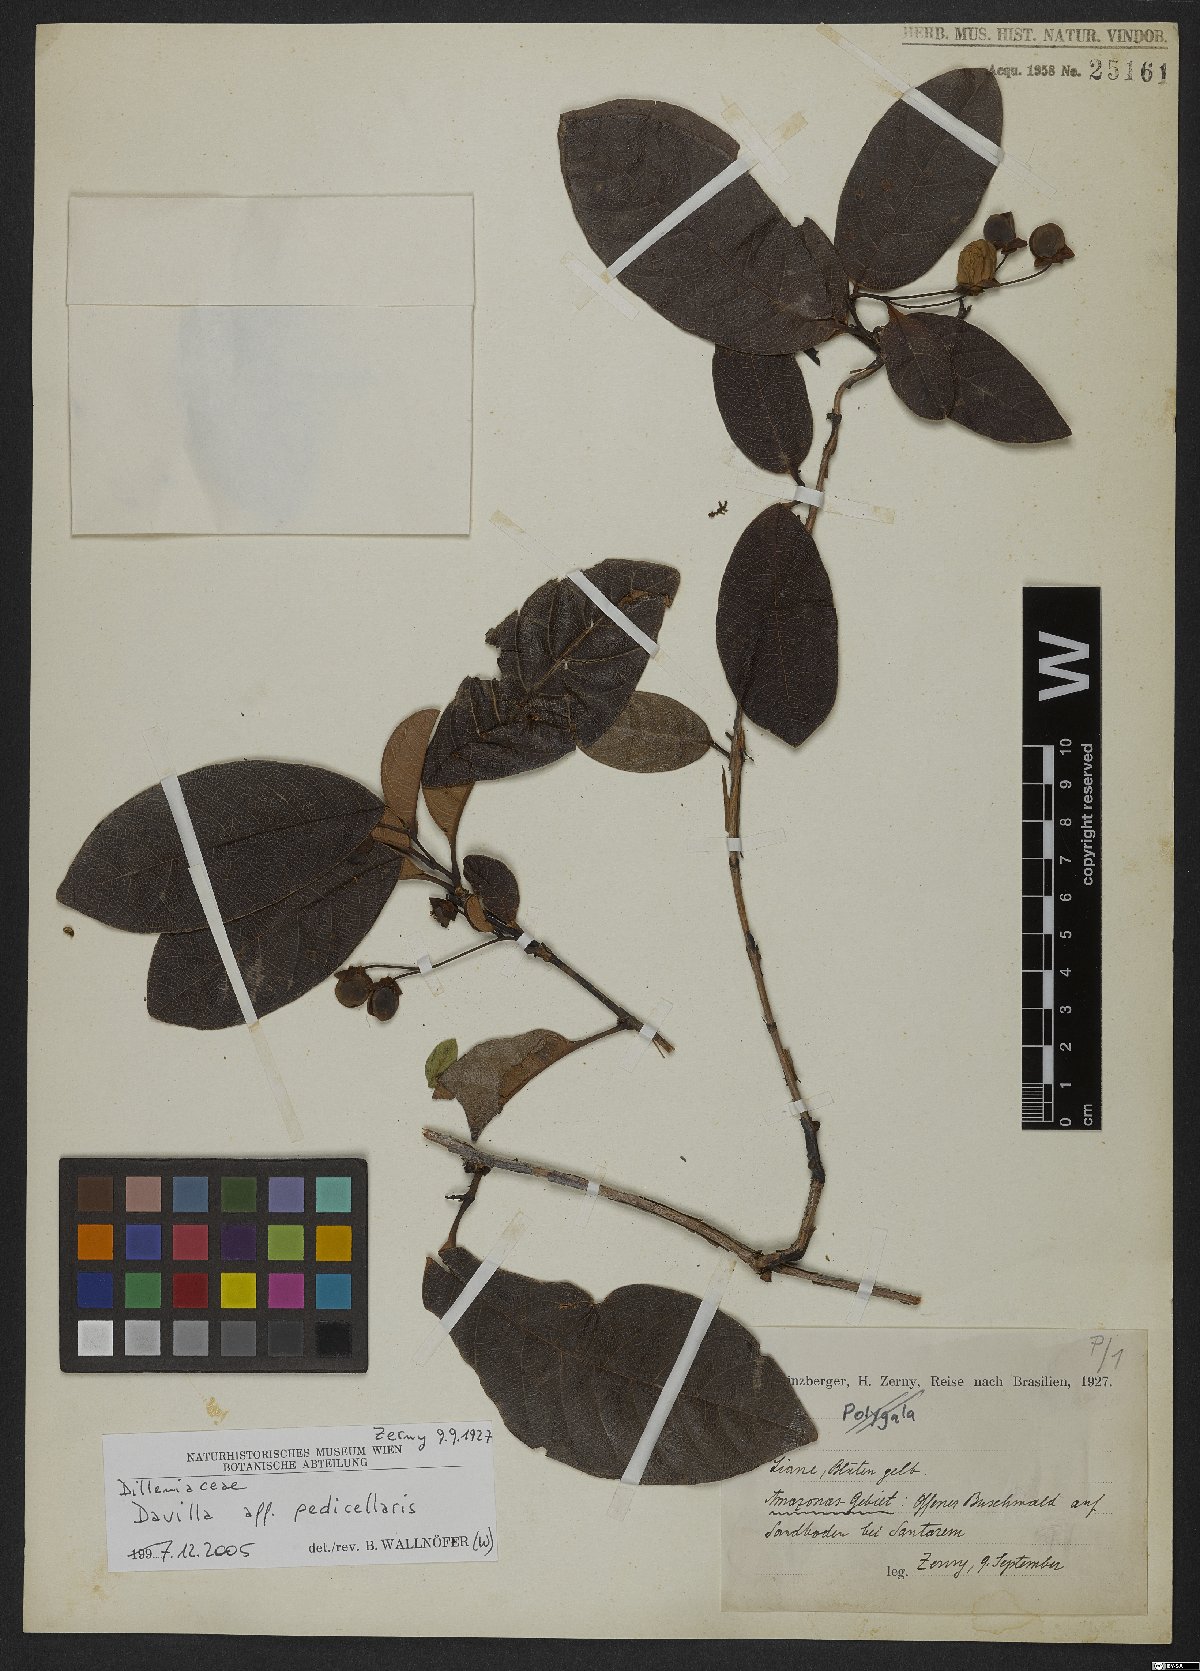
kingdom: Plantae
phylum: Tracheophyta
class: Magnoliopsida
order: Dilleniales
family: Dilleniaceae
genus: Davilla
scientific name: Davilla pedicellaris
